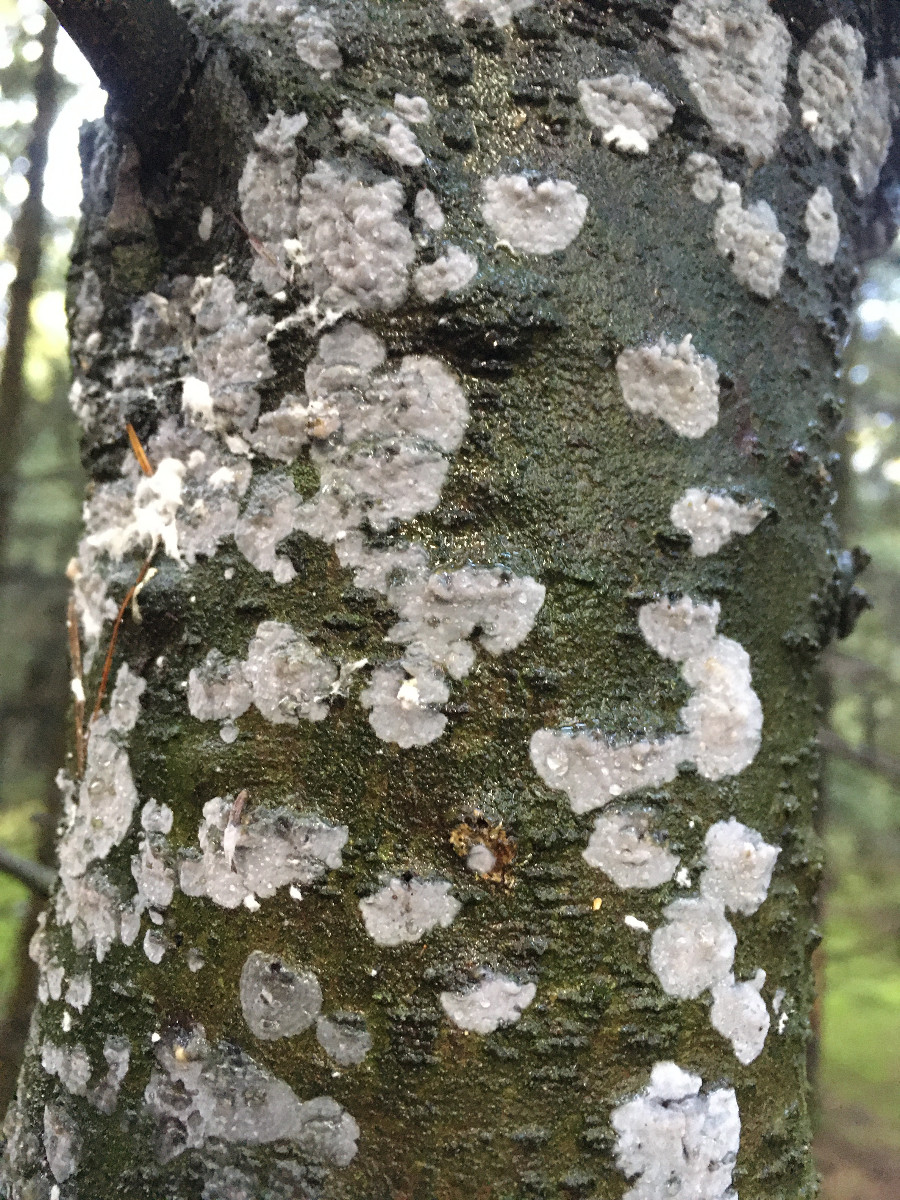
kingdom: Fungi
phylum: Basidiomycota
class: Agaricomycetes
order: Corticiales
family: Corticiaceae
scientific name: Corticiaceae
